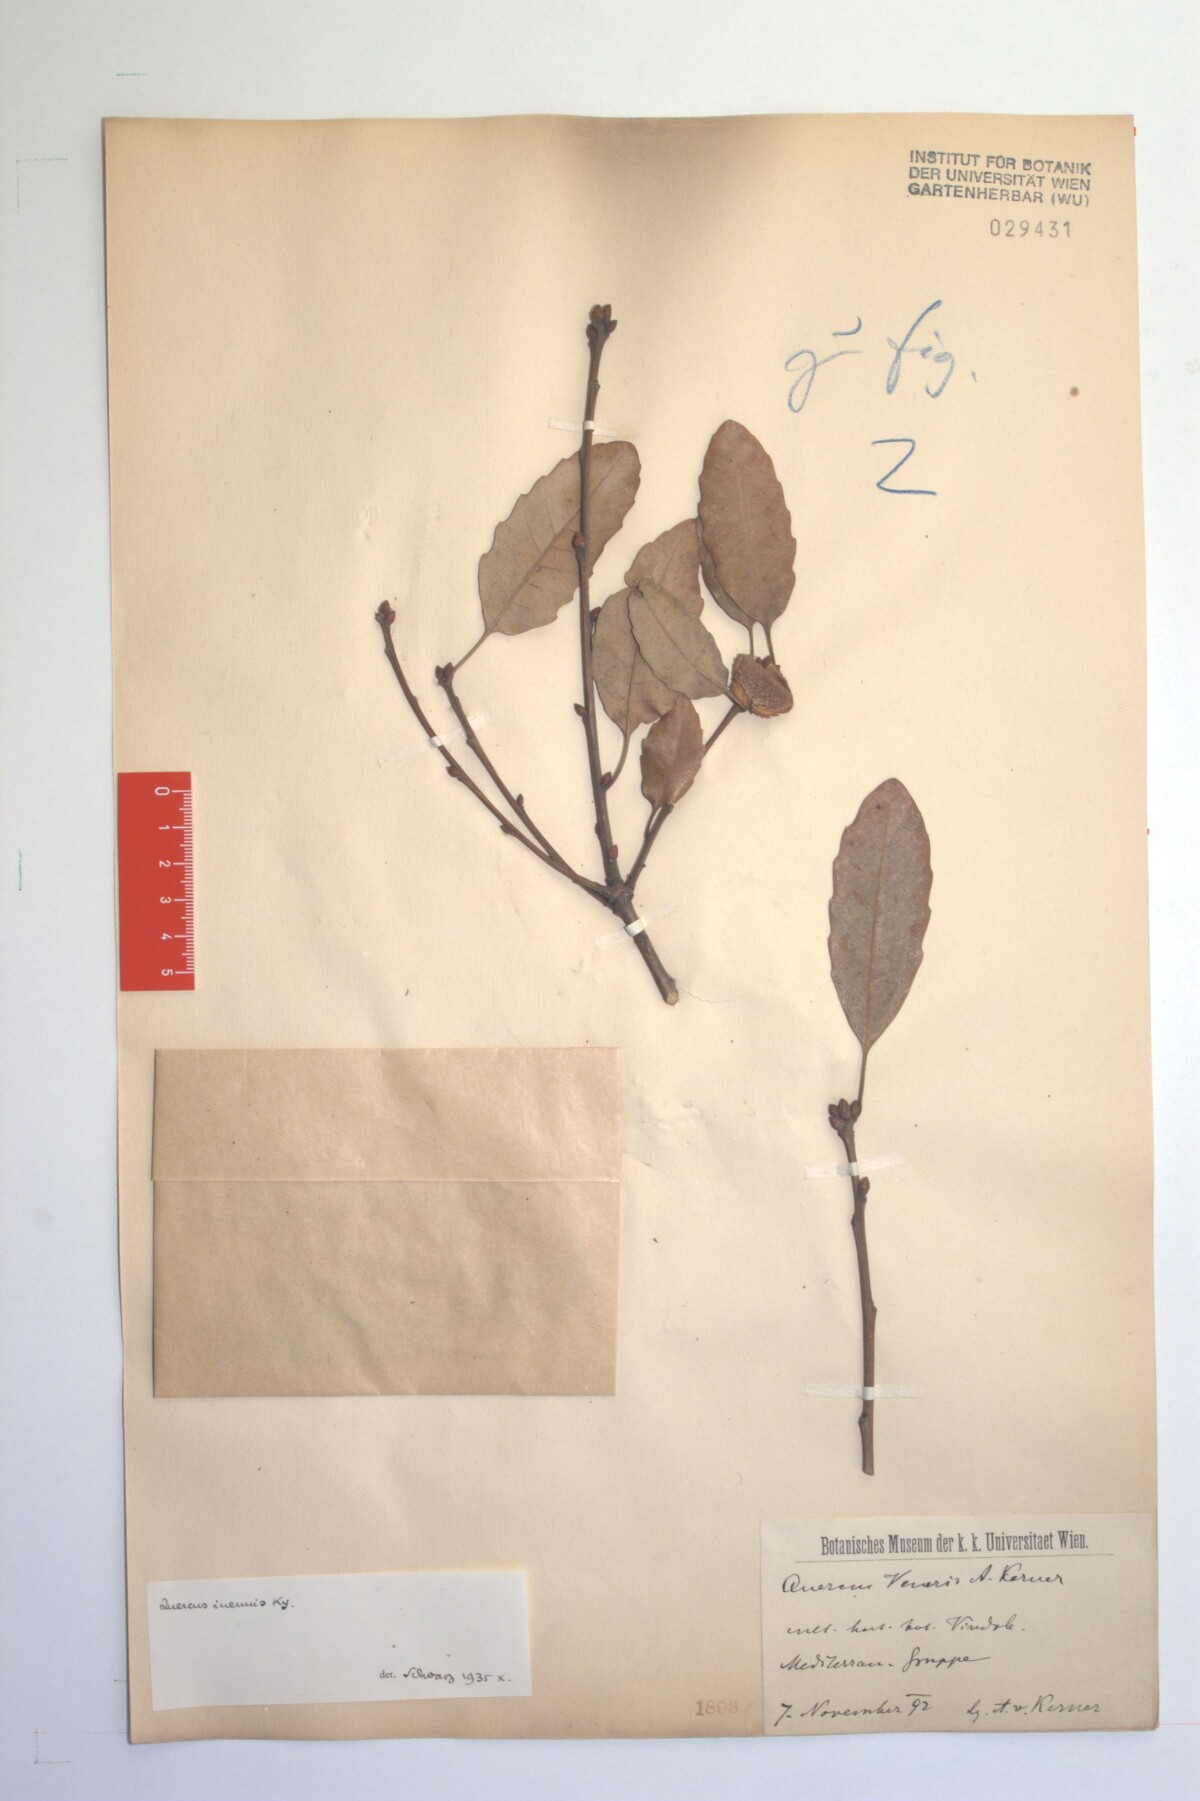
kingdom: Plantae
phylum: Tracheophyta
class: Magnoliopsida
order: Fagales
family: Fagaceae
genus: Quercus
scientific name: Quercus infectoria
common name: Aleppo oak
